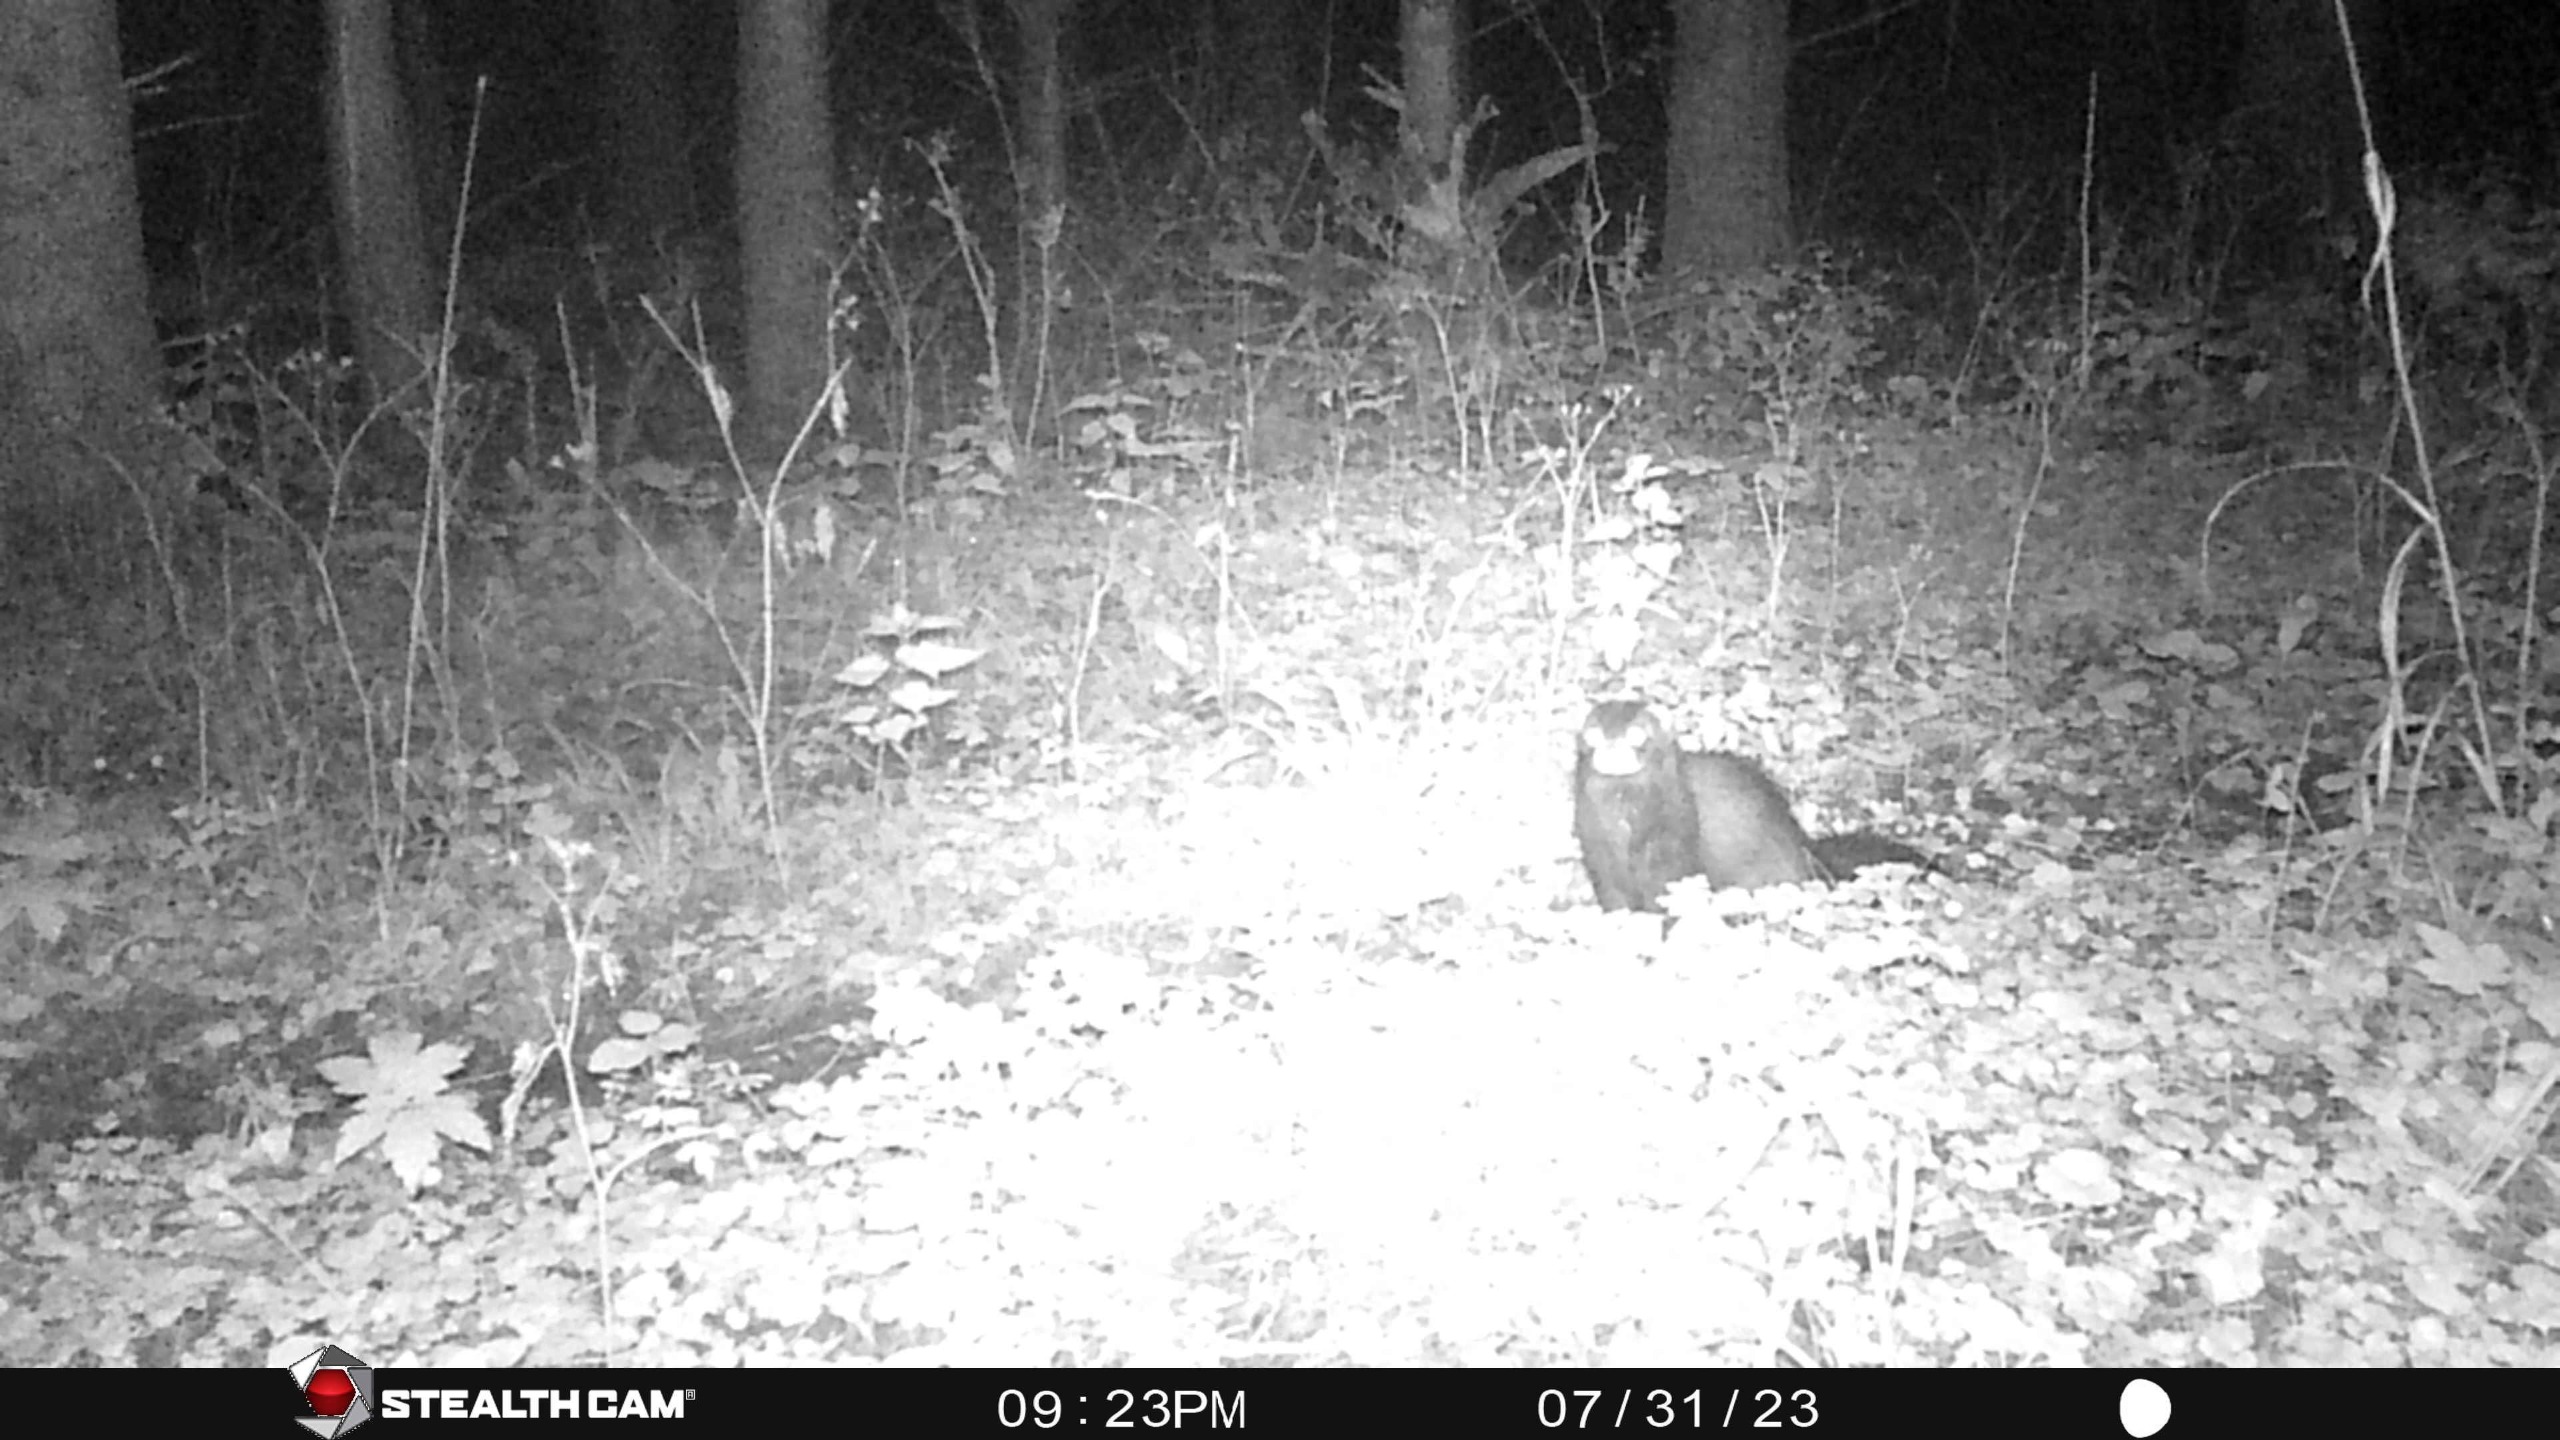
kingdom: Animalia
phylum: Chordata
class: Mammalia
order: Carnivora
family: Mustelidae
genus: Mustela
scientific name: Mustela vison
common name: Mink
